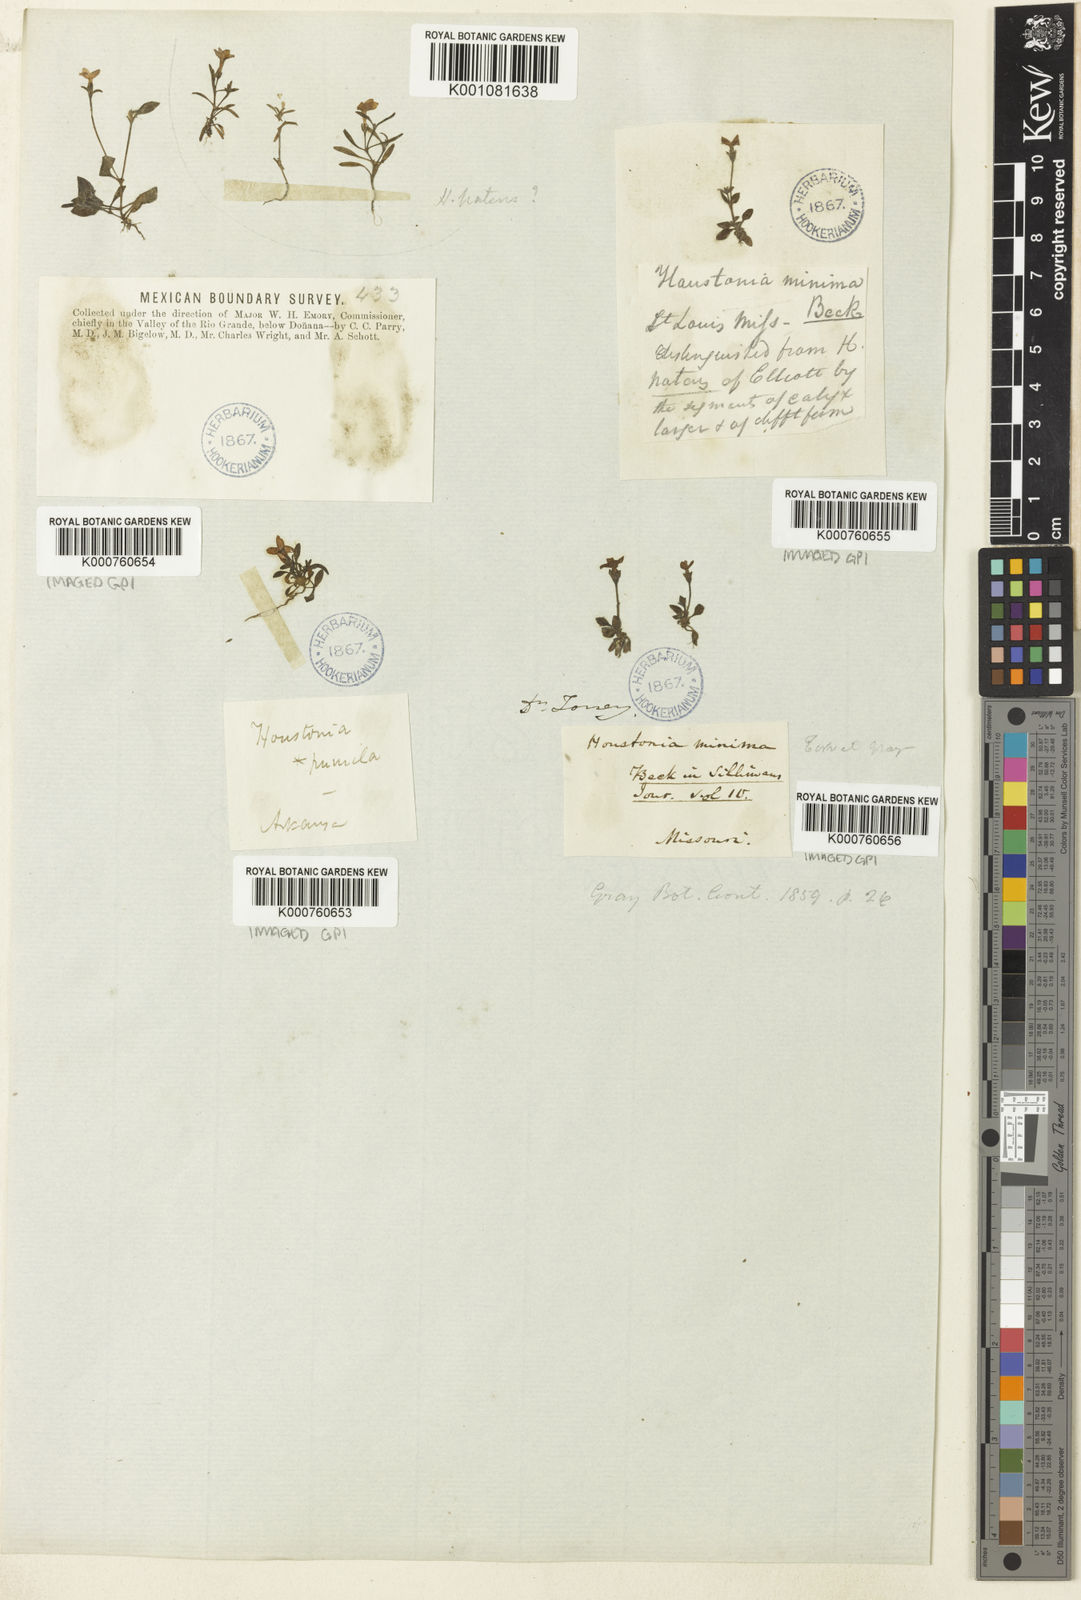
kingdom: Plantae
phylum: Tracheophyta
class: Magnoliopsida
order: Gentianales
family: Rubiaceae
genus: Houstonia
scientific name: Houstonia
